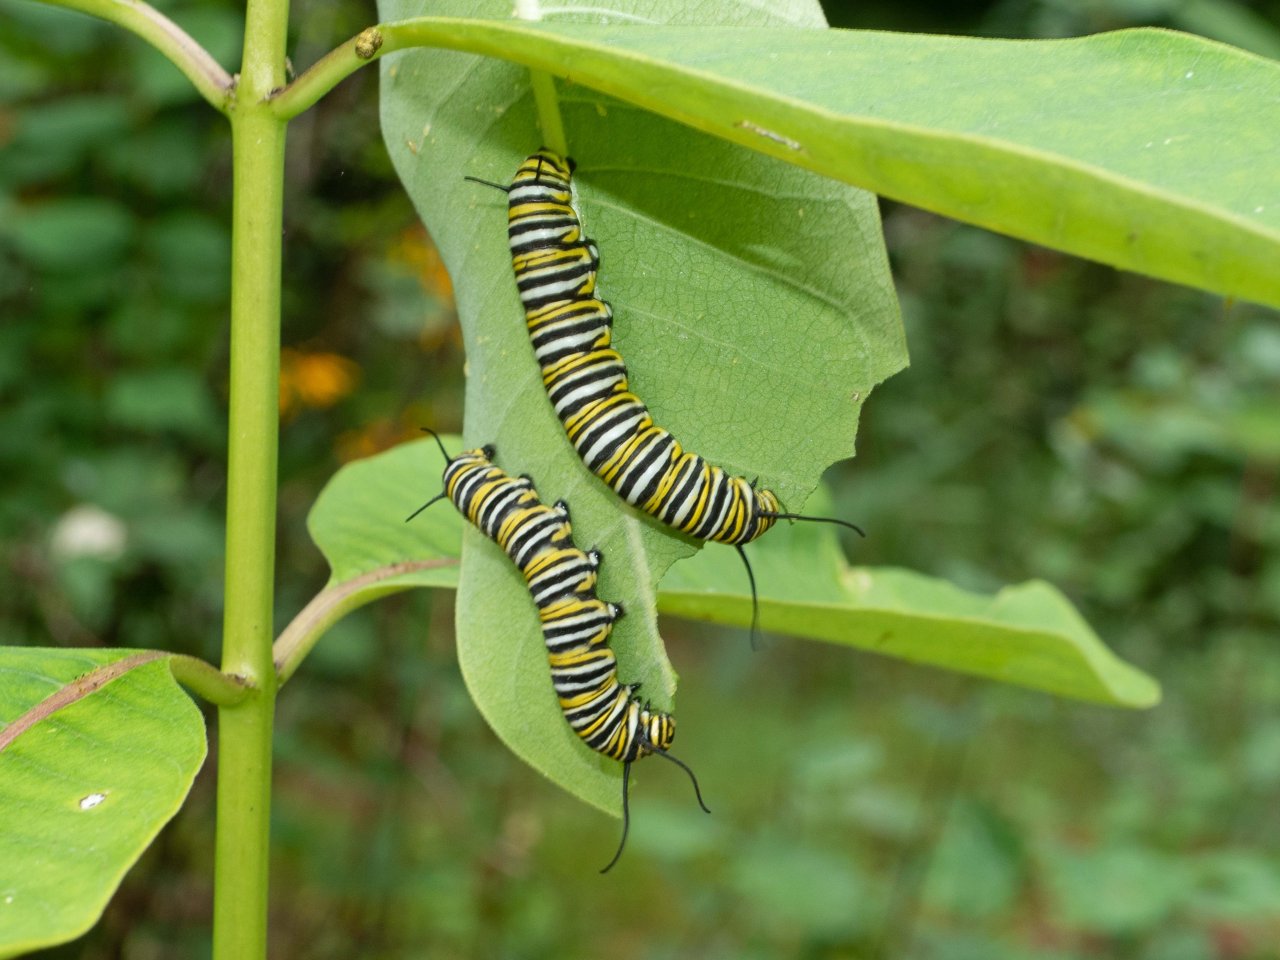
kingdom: Animalia
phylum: Arthropoda
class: Insecta
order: Lepidoptera
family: Nymphalidae
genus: Danaus
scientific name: Danaus plexippus
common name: Monarch
